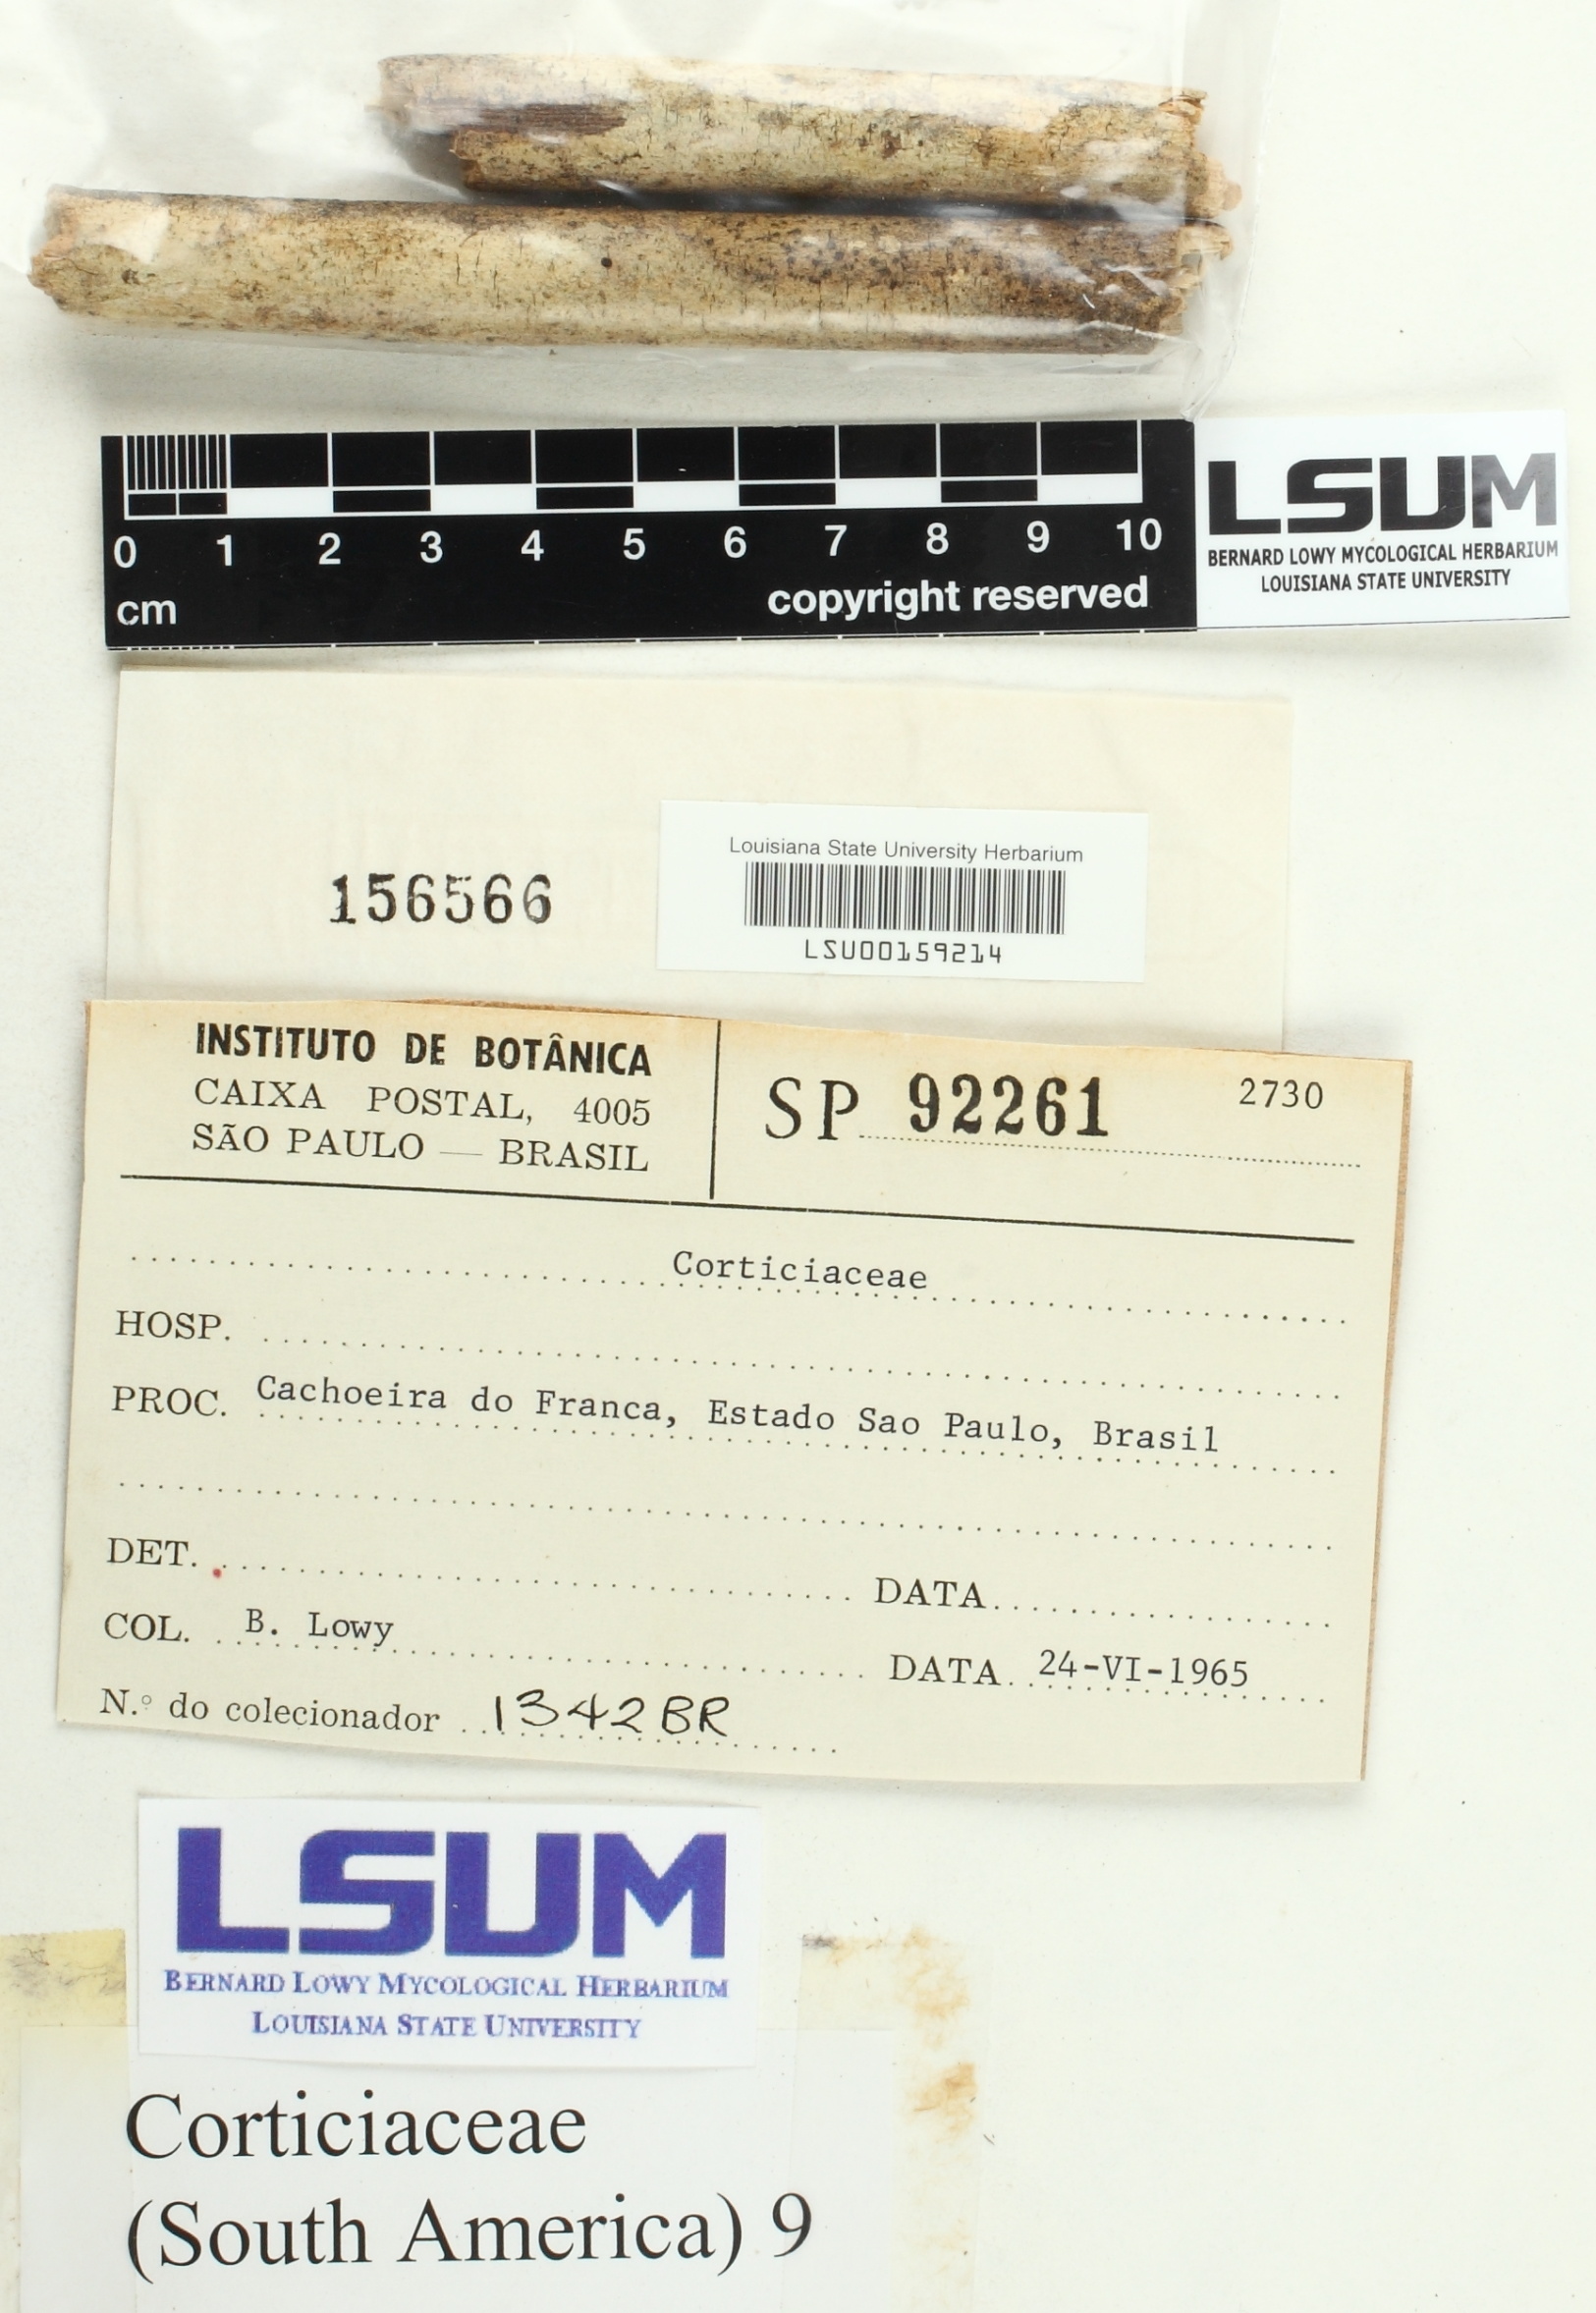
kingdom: Fungi
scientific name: Fungi
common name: Fungi
